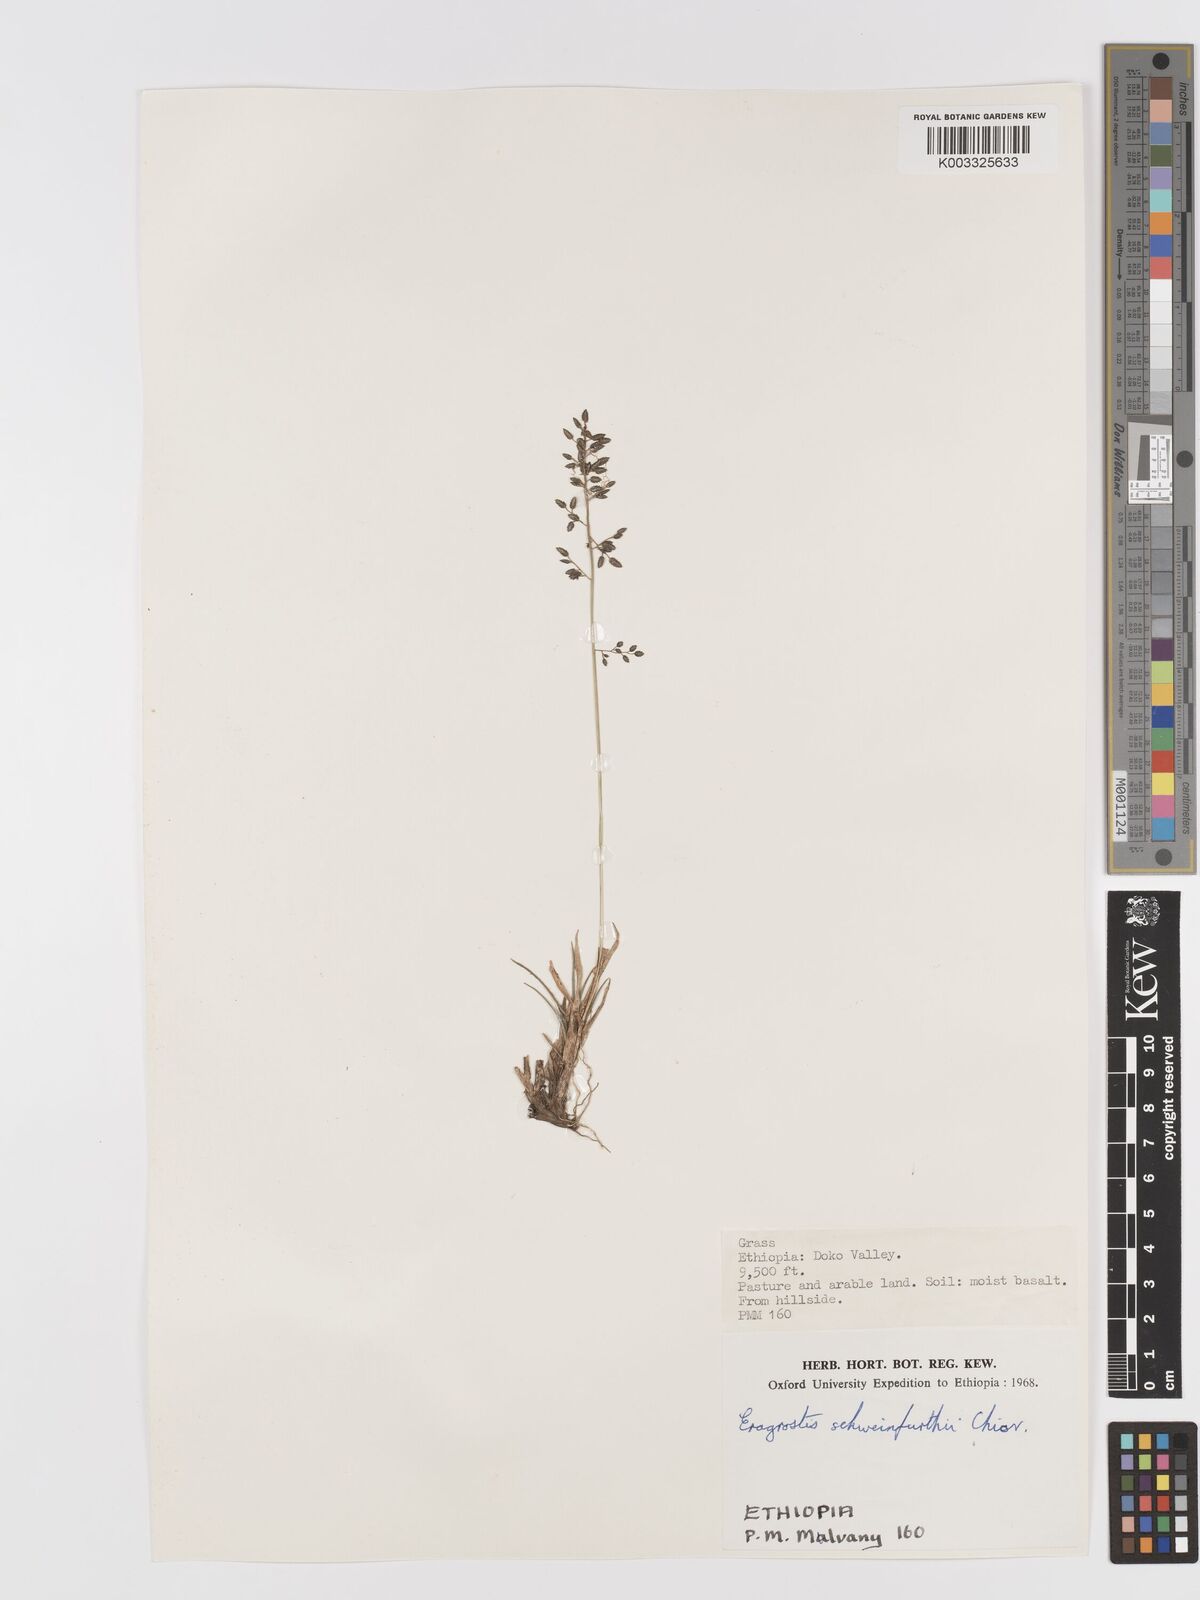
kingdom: Plantae
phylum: Tracheophyta
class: Liliopsida
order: Poales
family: Poaceae
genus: Eragrostis
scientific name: Eragrostis schweinfurthii
